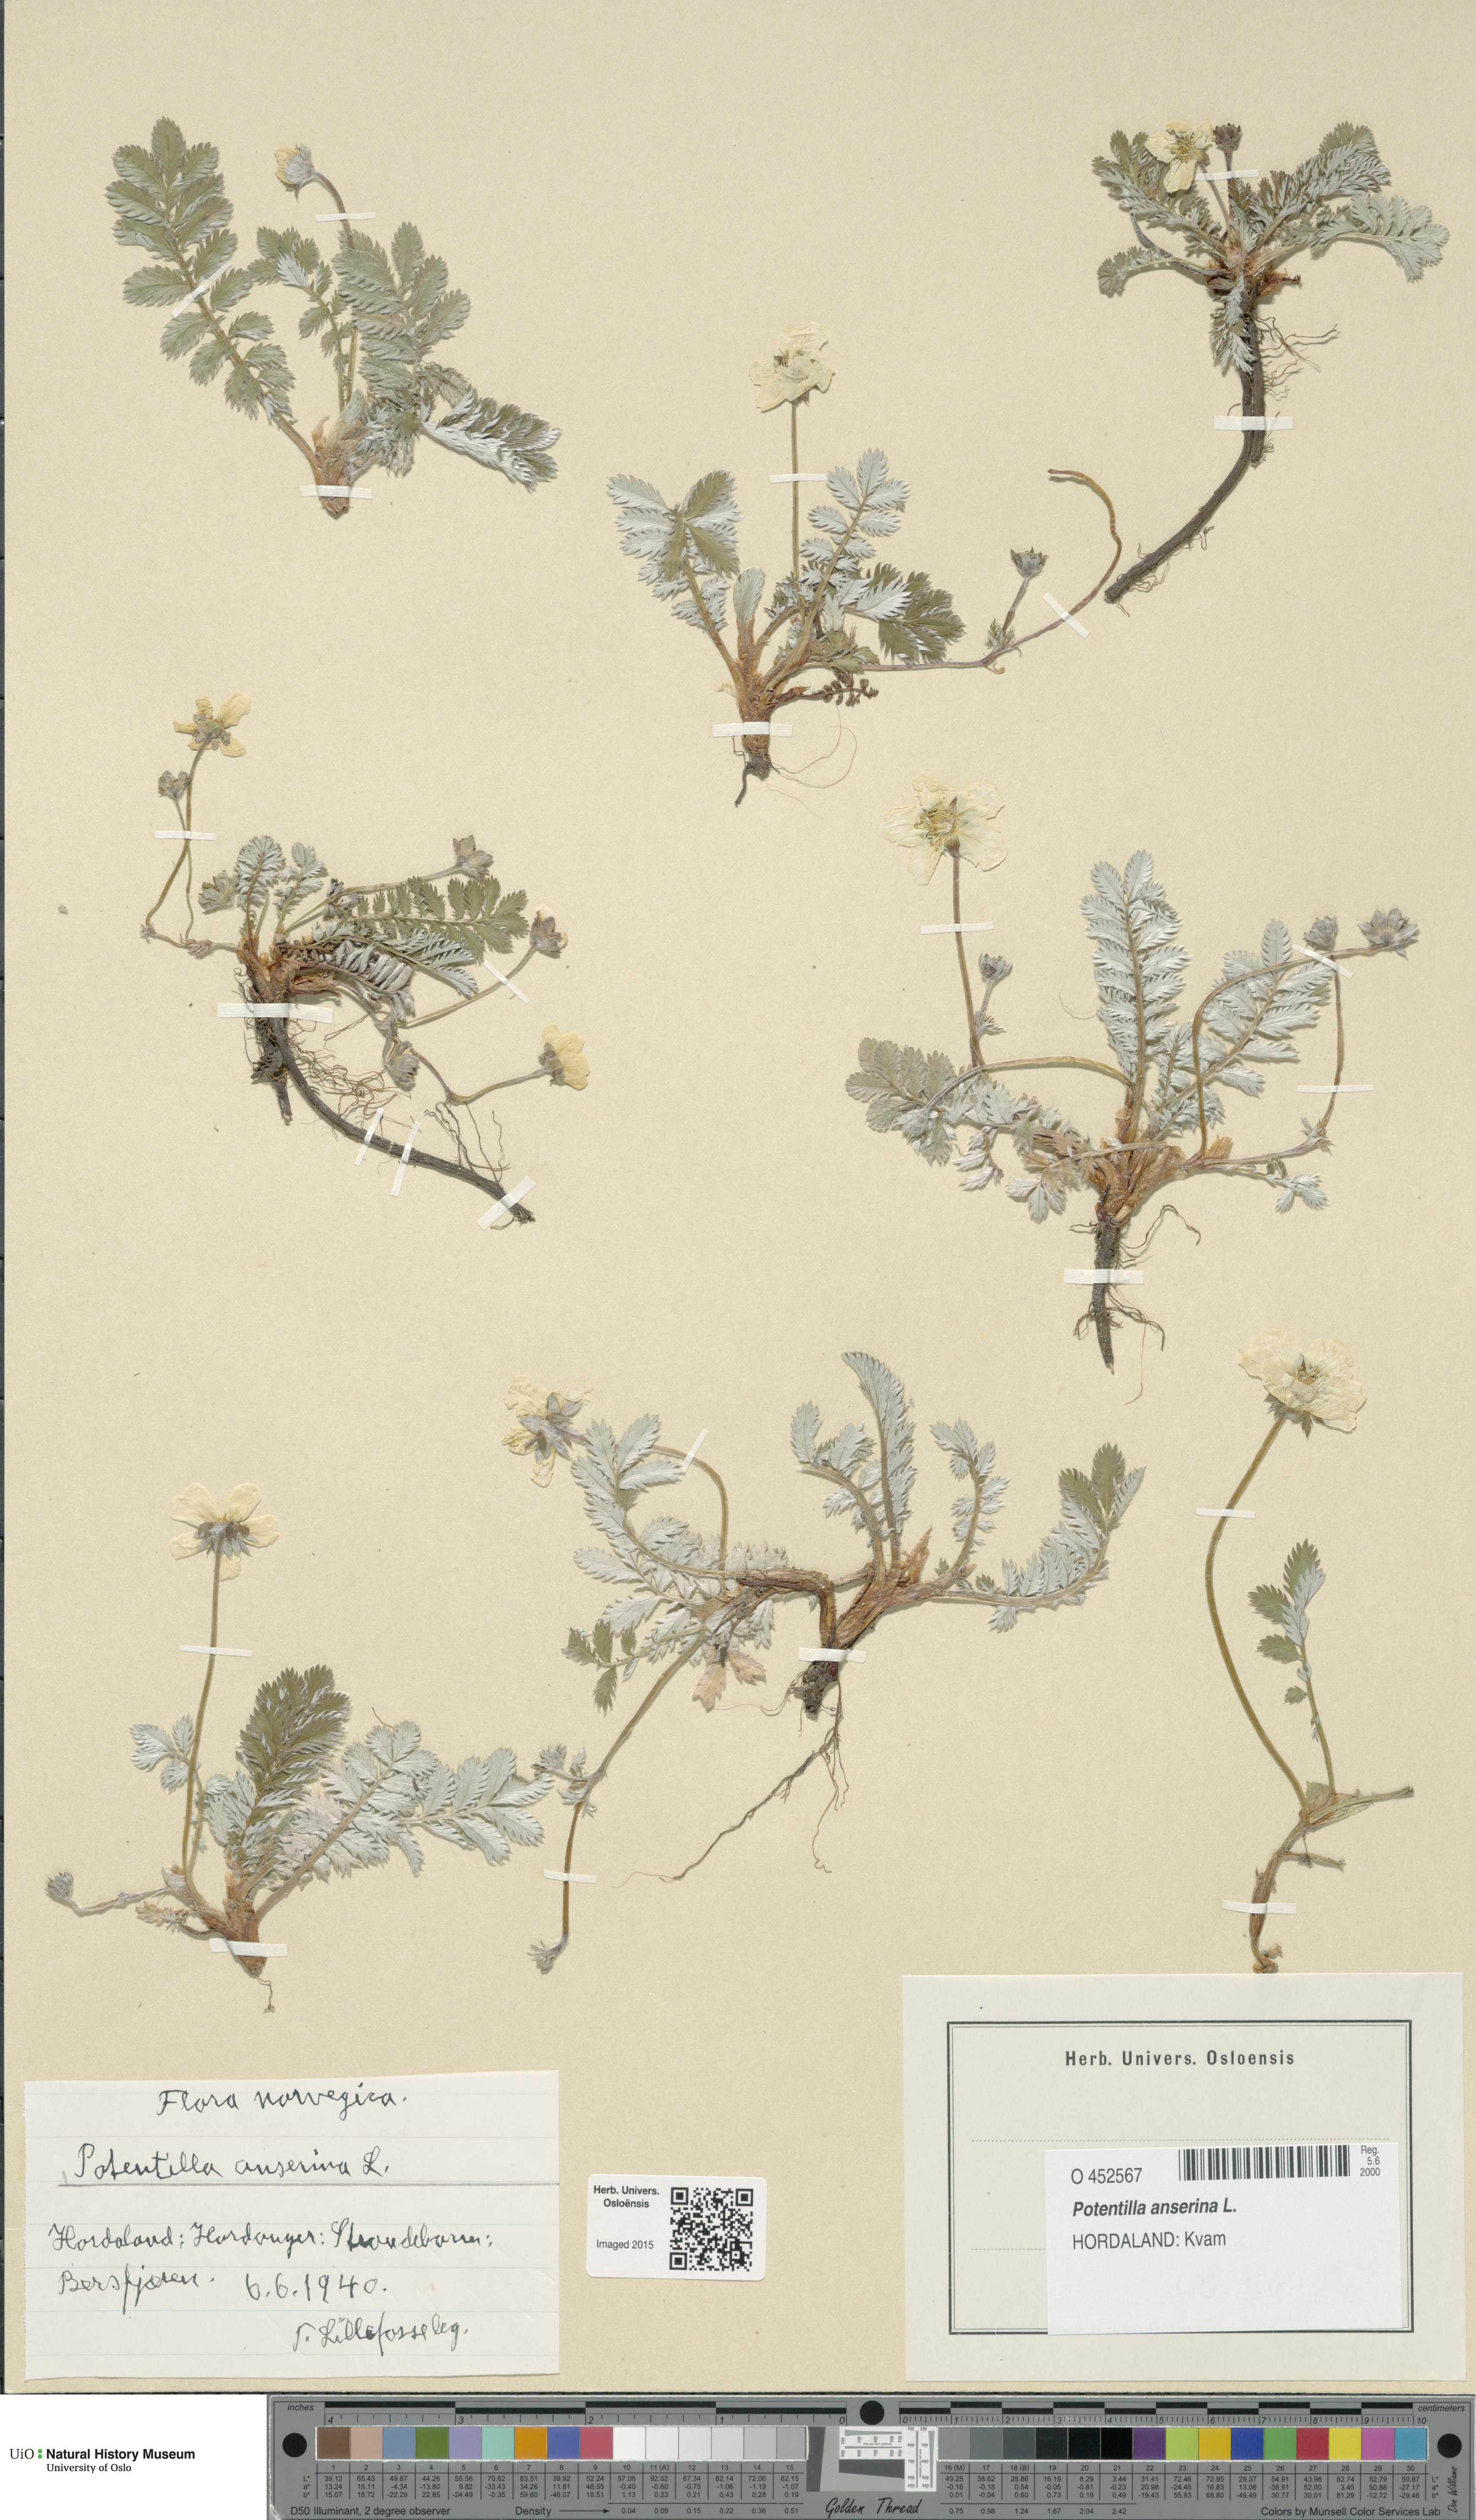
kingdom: Plantae
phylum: Tracheophyta
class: Magnoliopsida
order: Rosales
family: Rosaceae
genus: Argentina
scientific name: Argentina anserina
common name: Common silverweed
